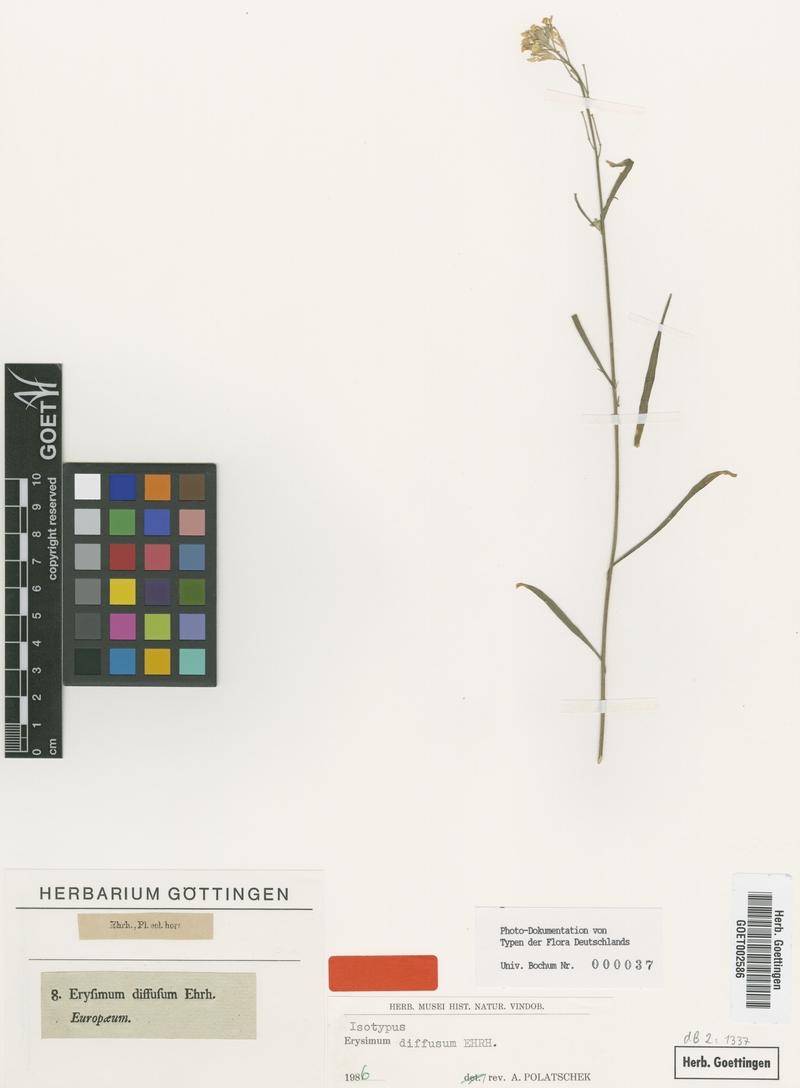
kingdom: Plantae
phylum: Tracheophyta
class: Magnoliopsida
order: Brassicales
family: Brassicaceae
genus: Erysimum
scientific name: Erysimum diffusum
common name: Diffuse wallflower
